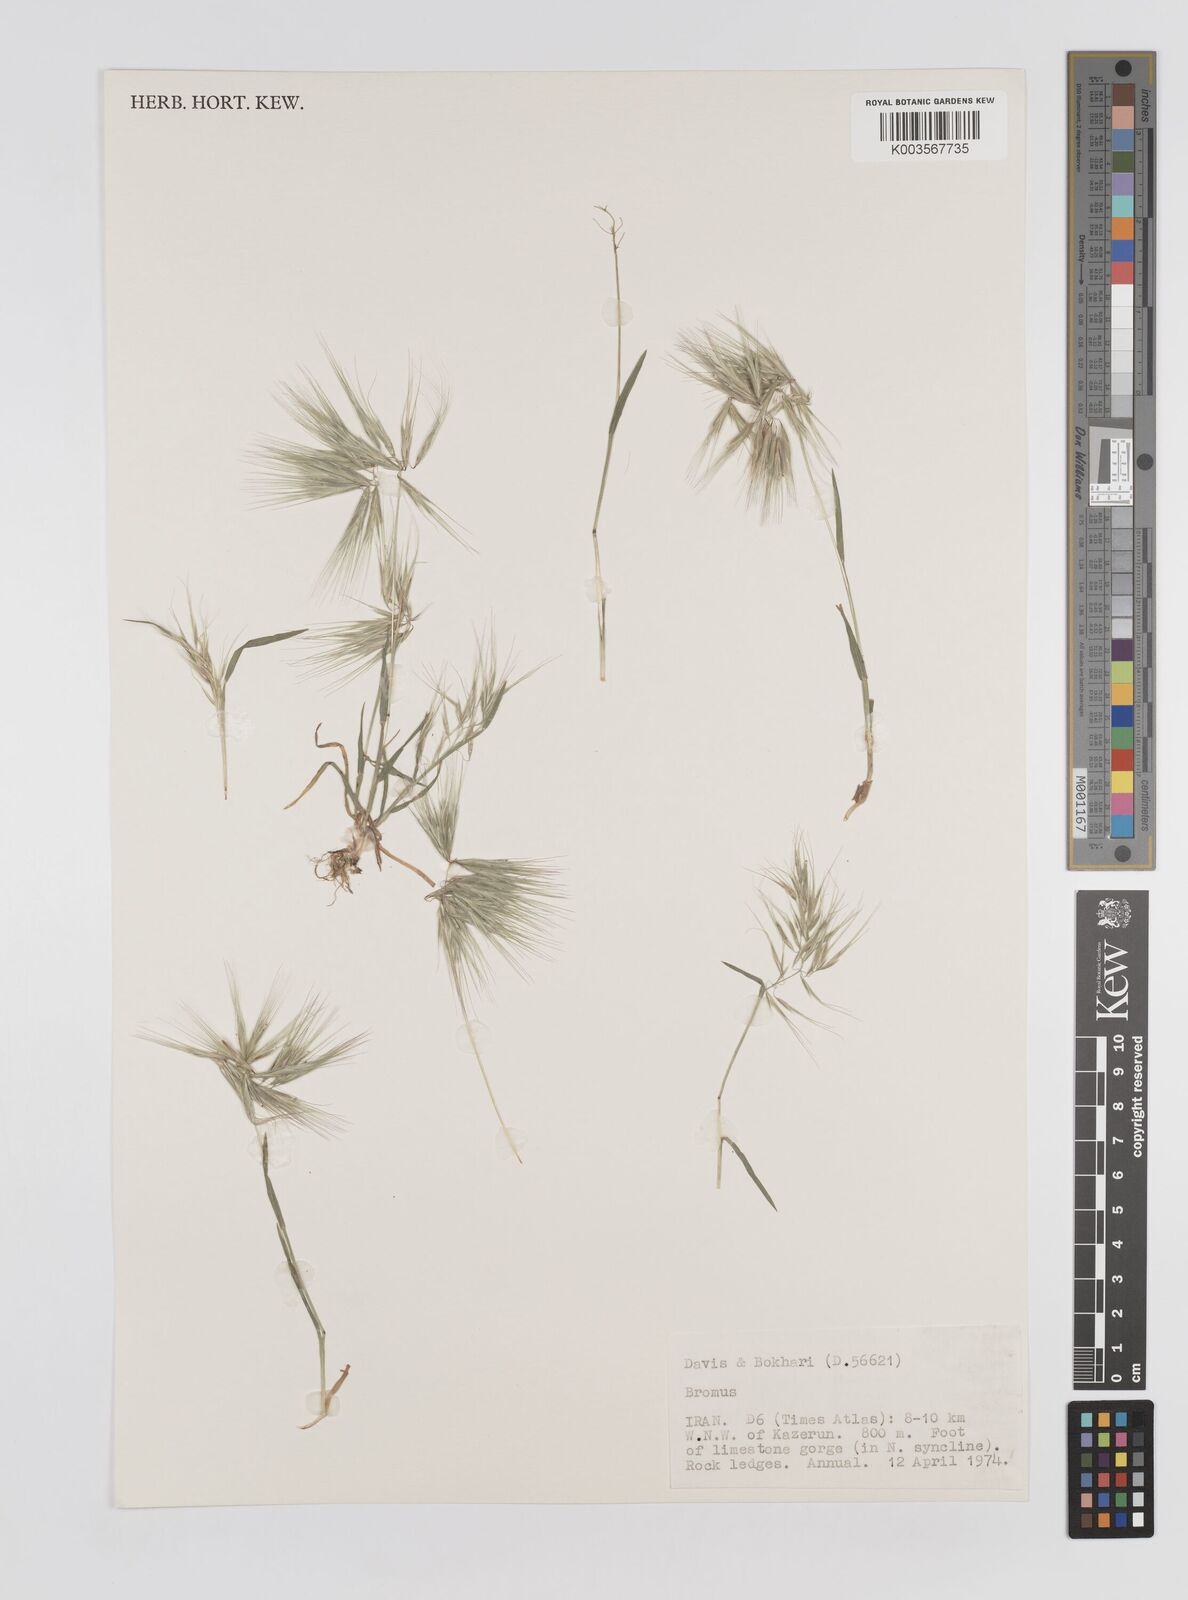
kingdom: Plantae
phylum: Tracheophyta
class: Liliopsida
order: Poales
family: Poaceae
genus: Bromus
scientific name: Bromus
